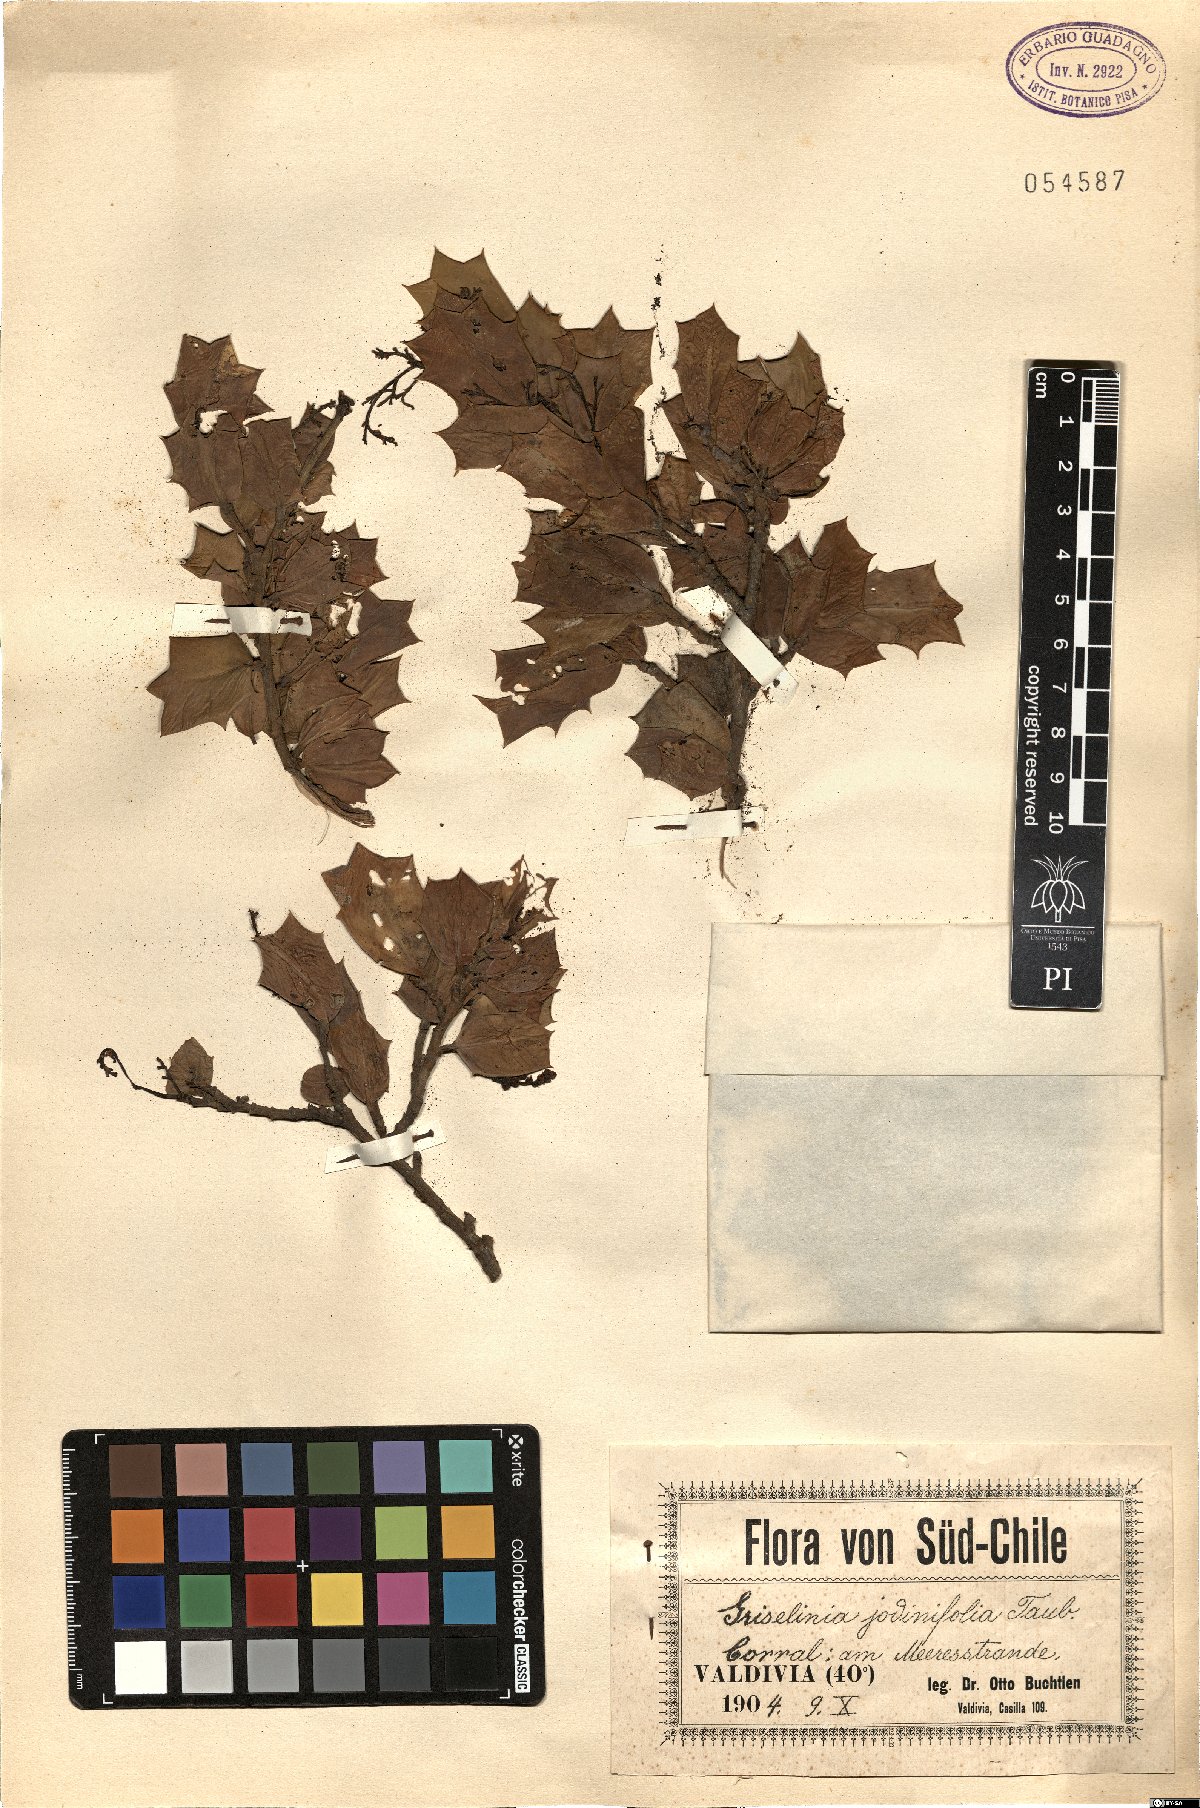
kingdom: Plantae
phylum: Tracheophyta
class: Magnoliopsida
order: Apiales
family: Griseliniaceae
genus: Griselinia
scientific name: Griselinia jodinifolia
